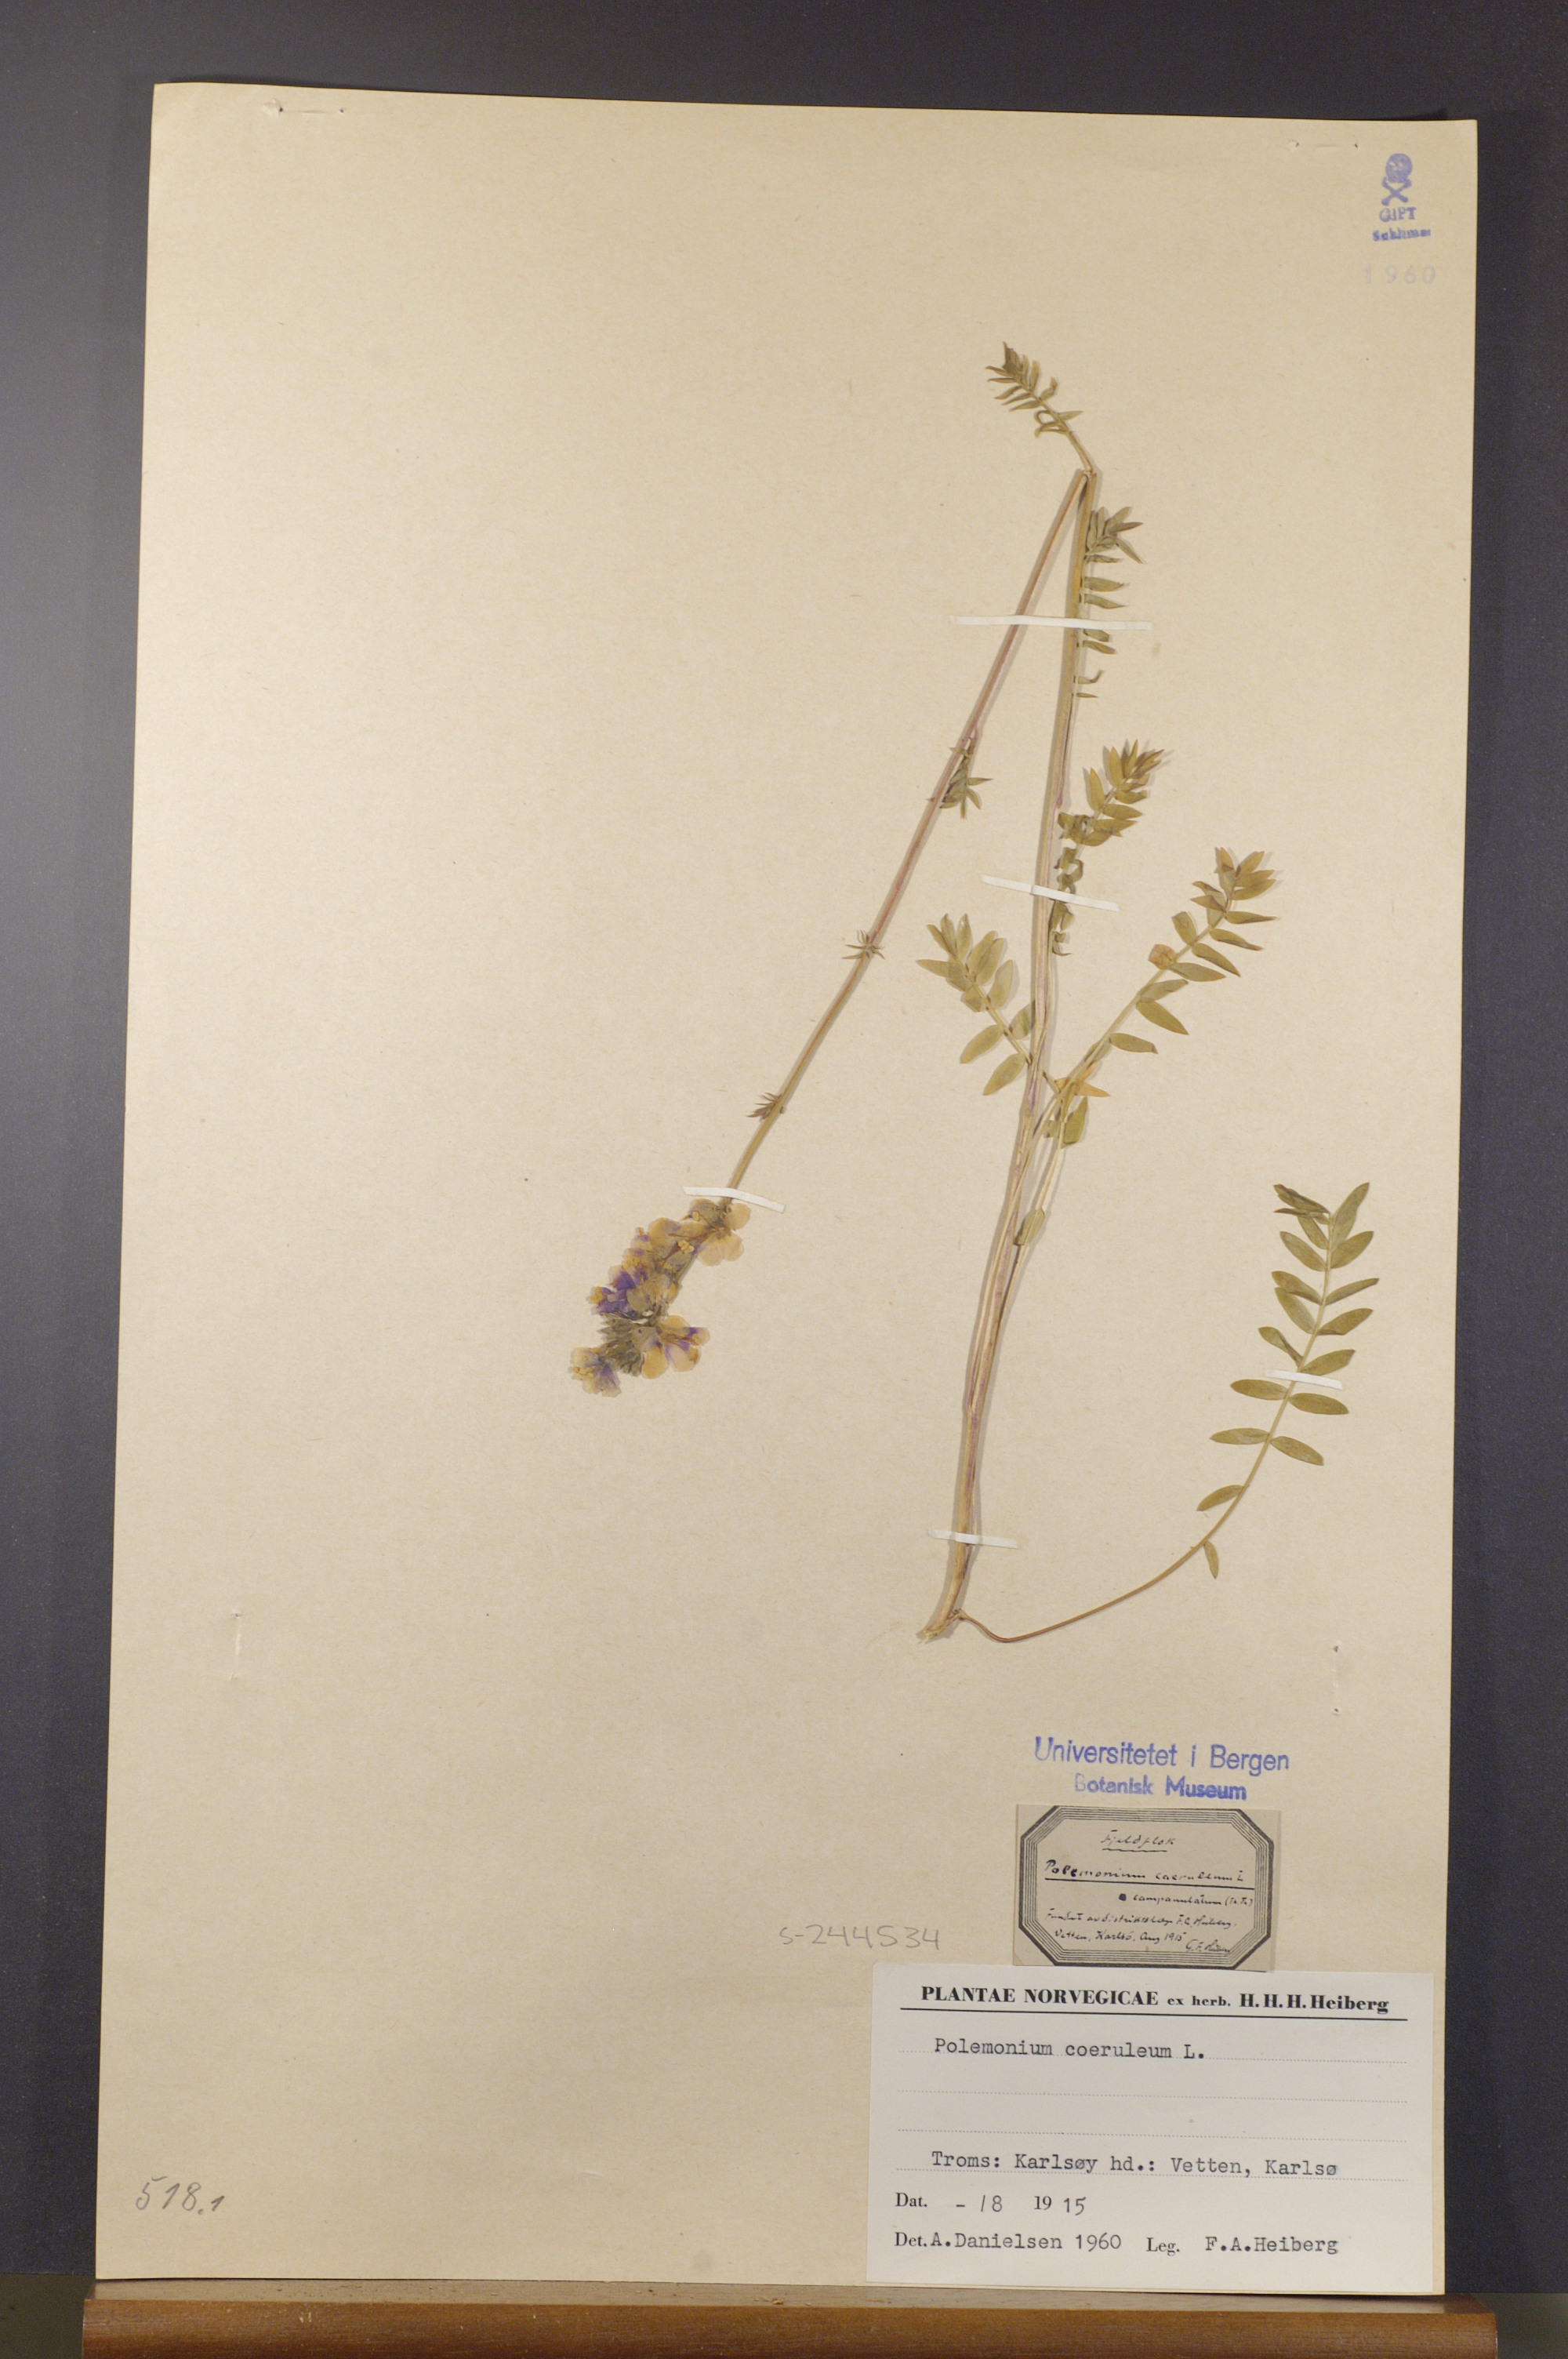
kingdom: Plantae
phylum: Tracheophyta
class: Magnoliopsida
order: Ericales
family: Polemoniaceae
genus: Polemonium
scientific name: Polemonium caeruleum
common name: Jacob's-ladder
